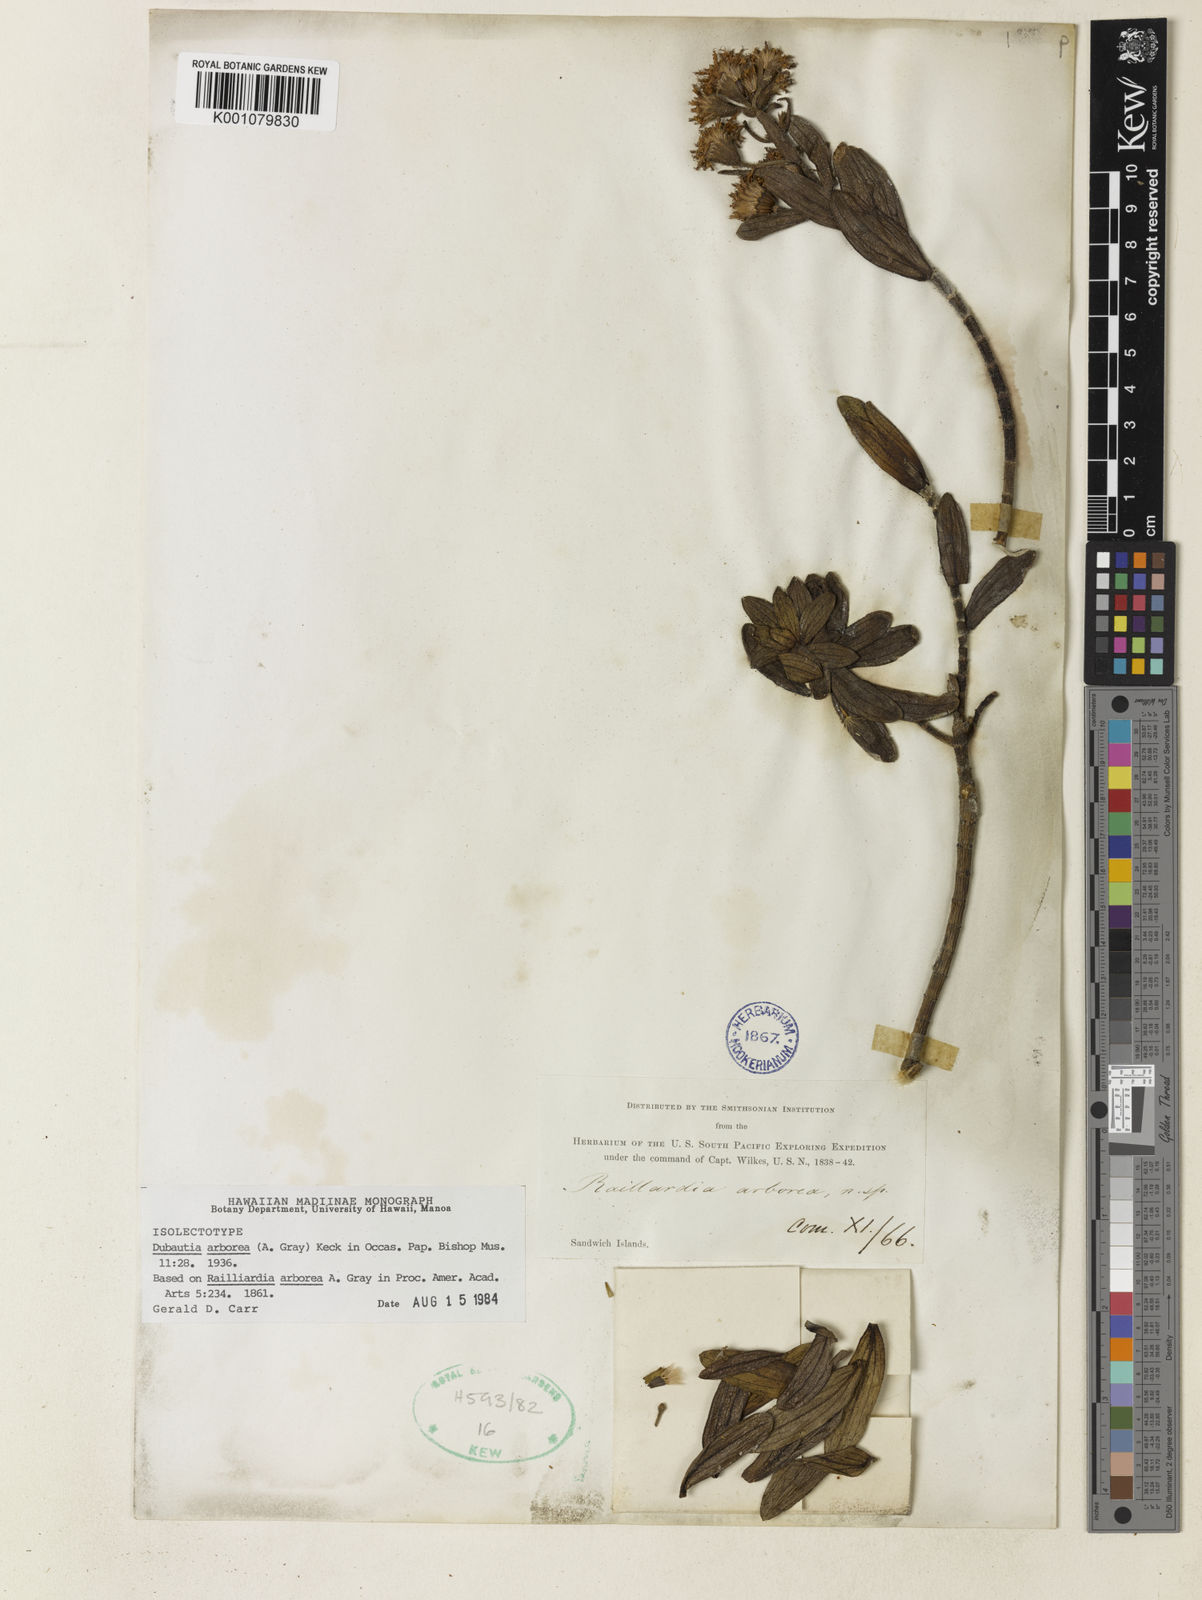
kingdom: Plantae
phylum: Tracheophyta
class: Magnoliopsida
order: Asterales
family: Asteraceae
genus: Dubautia
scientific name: Dubautia arborea
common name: Tree dubautia
